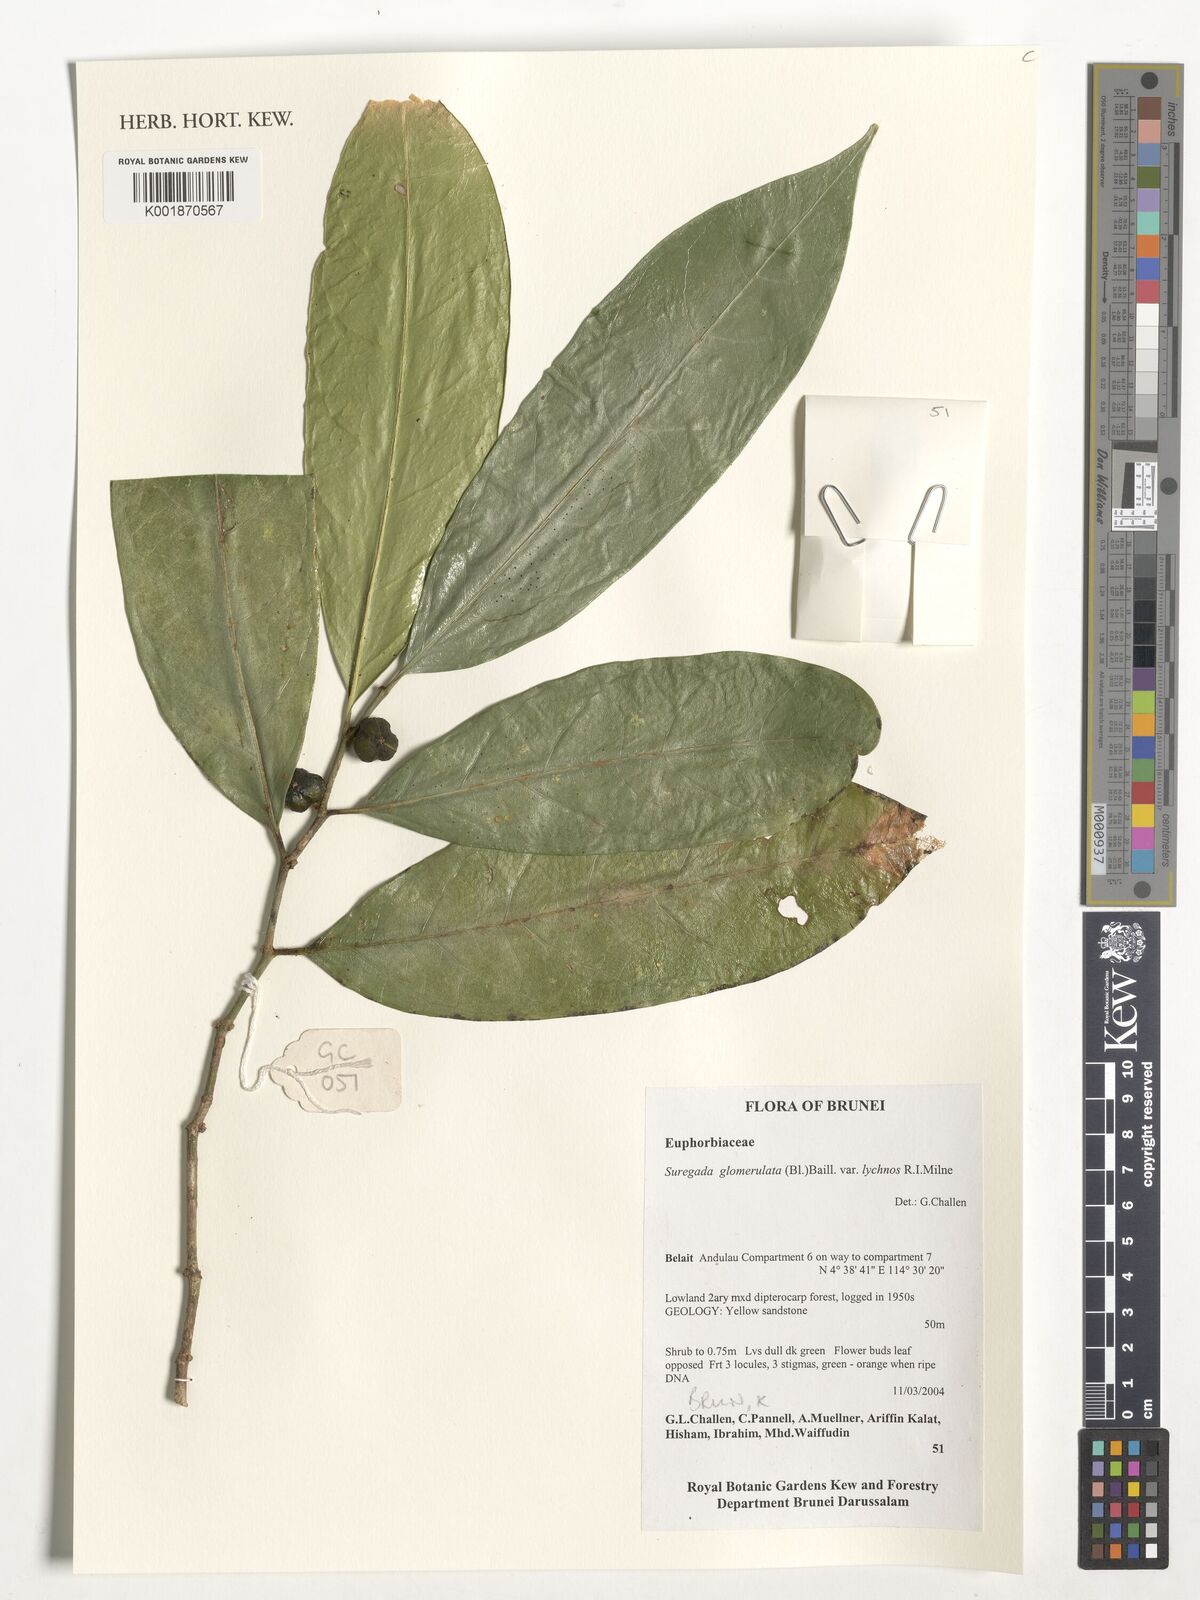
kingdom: Plantae
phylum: Tracheophyta
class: Magnoliopsida
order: Malpighiales
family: Euphorbiaceae
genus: Suregada
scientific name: Suregada glomerulata
